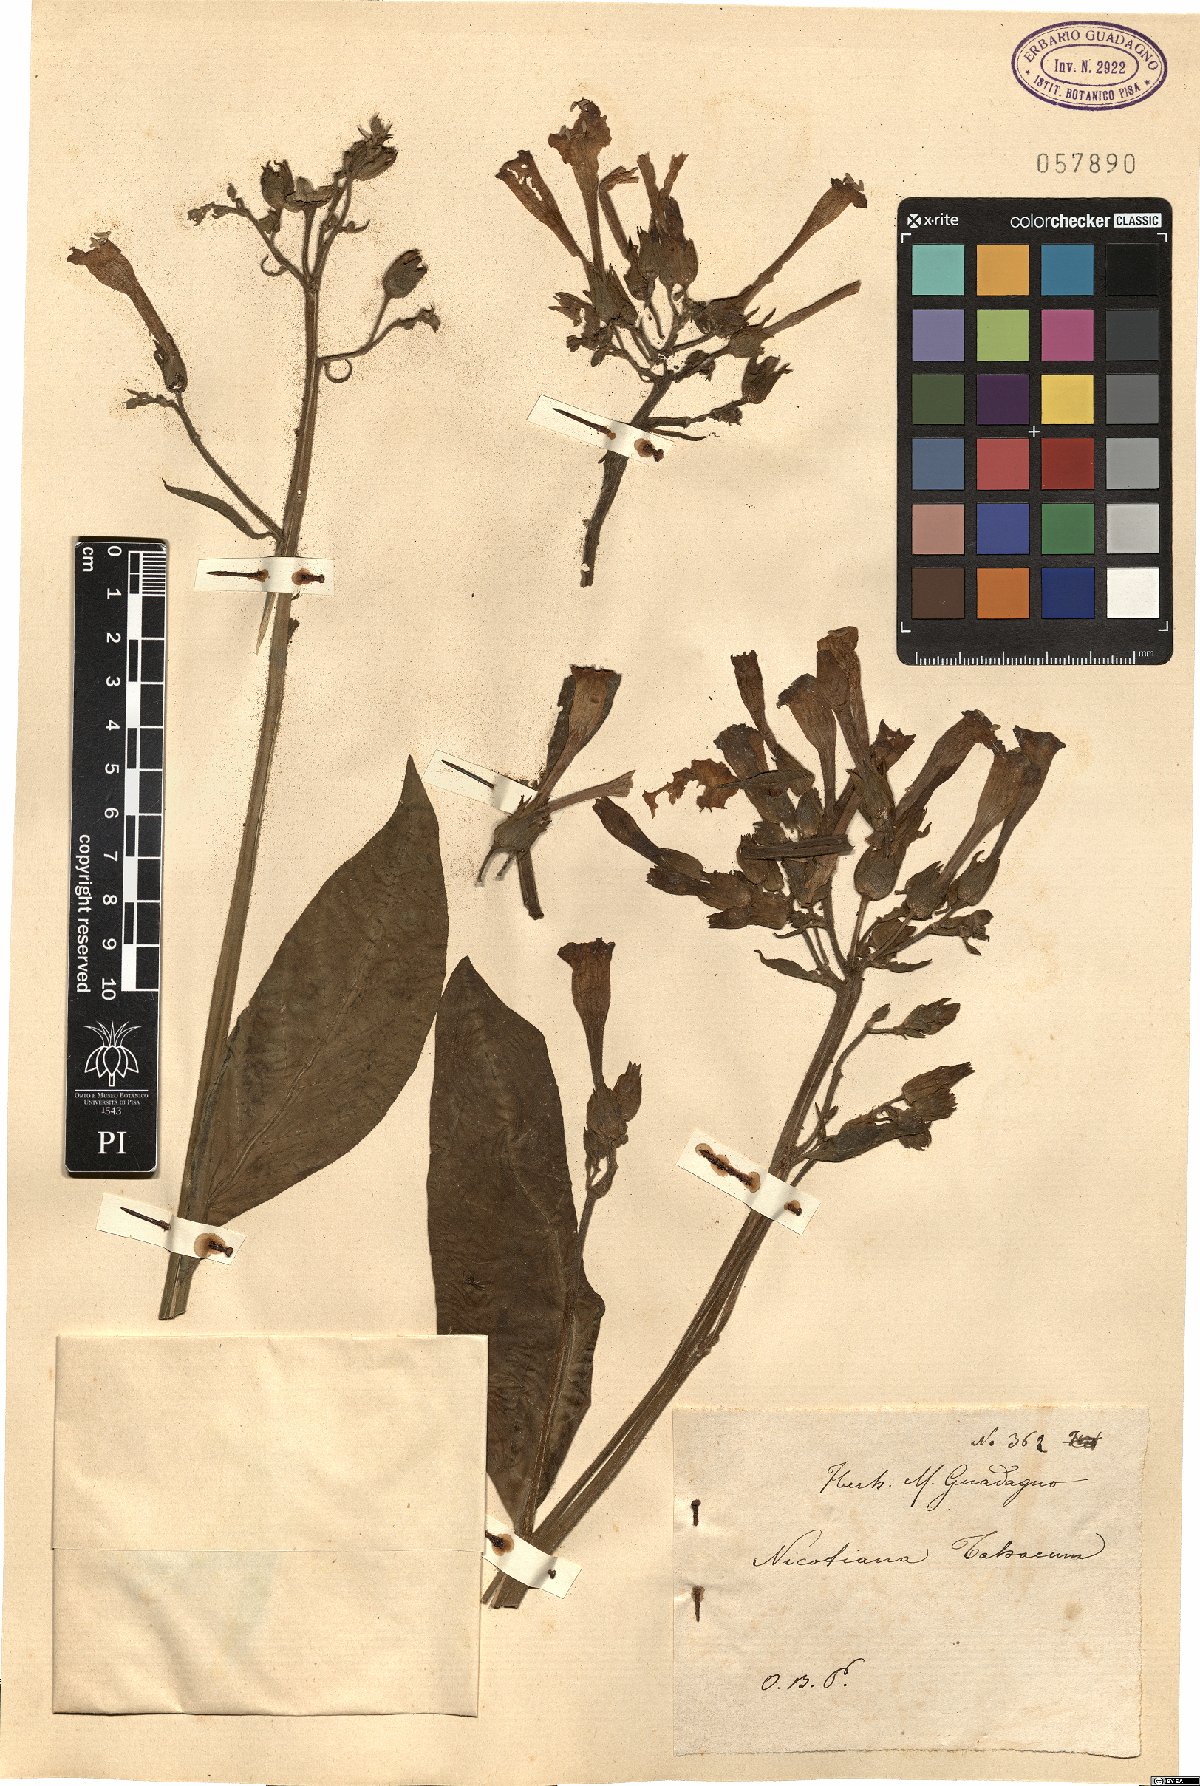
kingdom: Plantae
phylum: Tracheophyta
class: Magnoliopsida
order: Solanales
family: Solanaceae
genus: Nicotiana
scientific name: Nicotiana tabacum
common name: Tobacco
